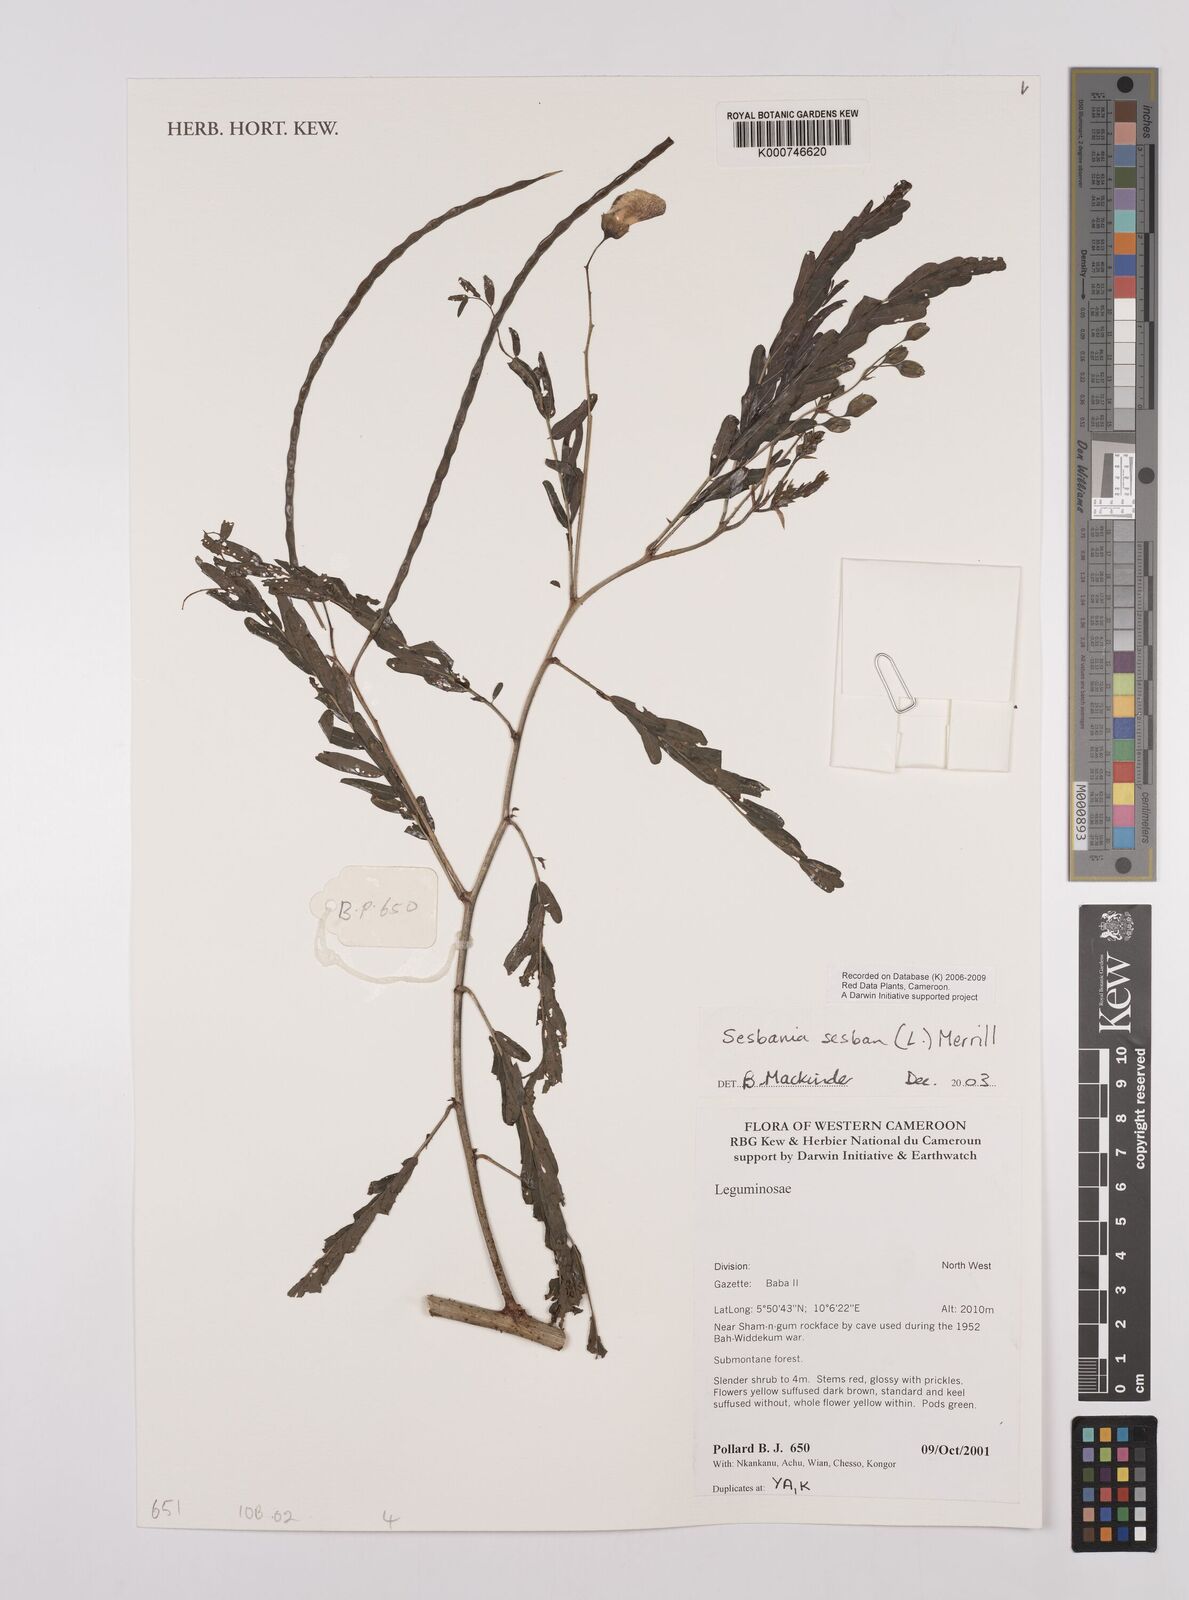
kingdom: Plantae
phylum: Tracheophyta
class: Magnoliopsida
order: Fabales
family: Fabaceae
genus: Sesbania
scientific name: Sesbania
